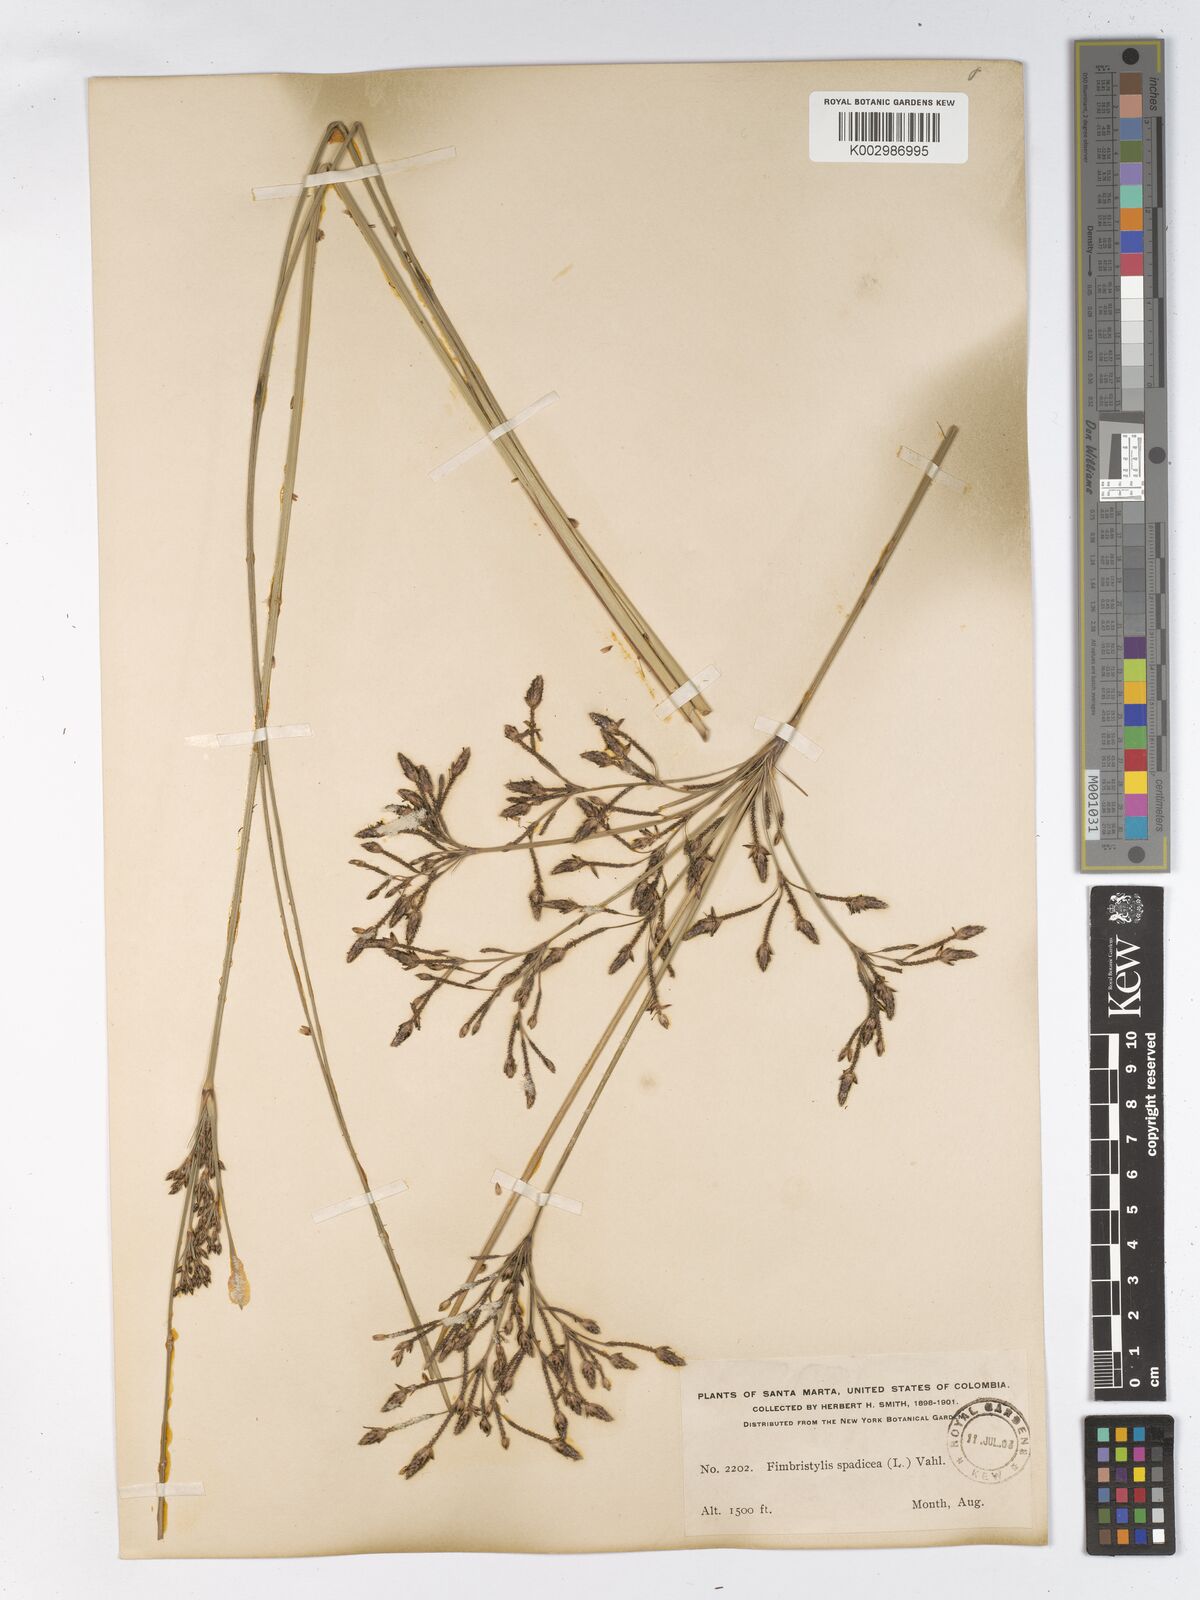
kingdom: Plantae
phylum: Tracheophyta
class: Liliopsida
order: Poales
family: Cyperaceae
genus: Fimbristylis
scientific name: Fimbristylis spadicea
